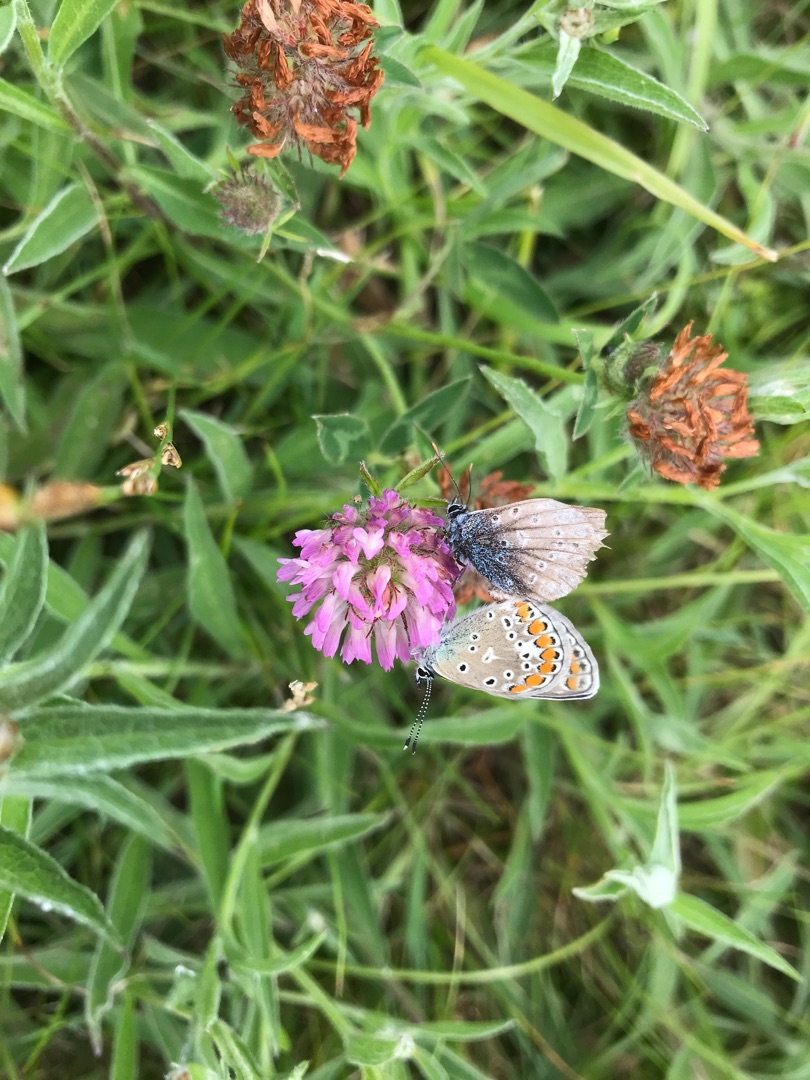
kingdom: Animalia
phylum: Arthropoda
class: Insecta
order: Lepidoptera
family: Lycaenidae
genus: Polyommatus
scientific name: Polyommatus icarus
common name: Almindelig blåfugl
